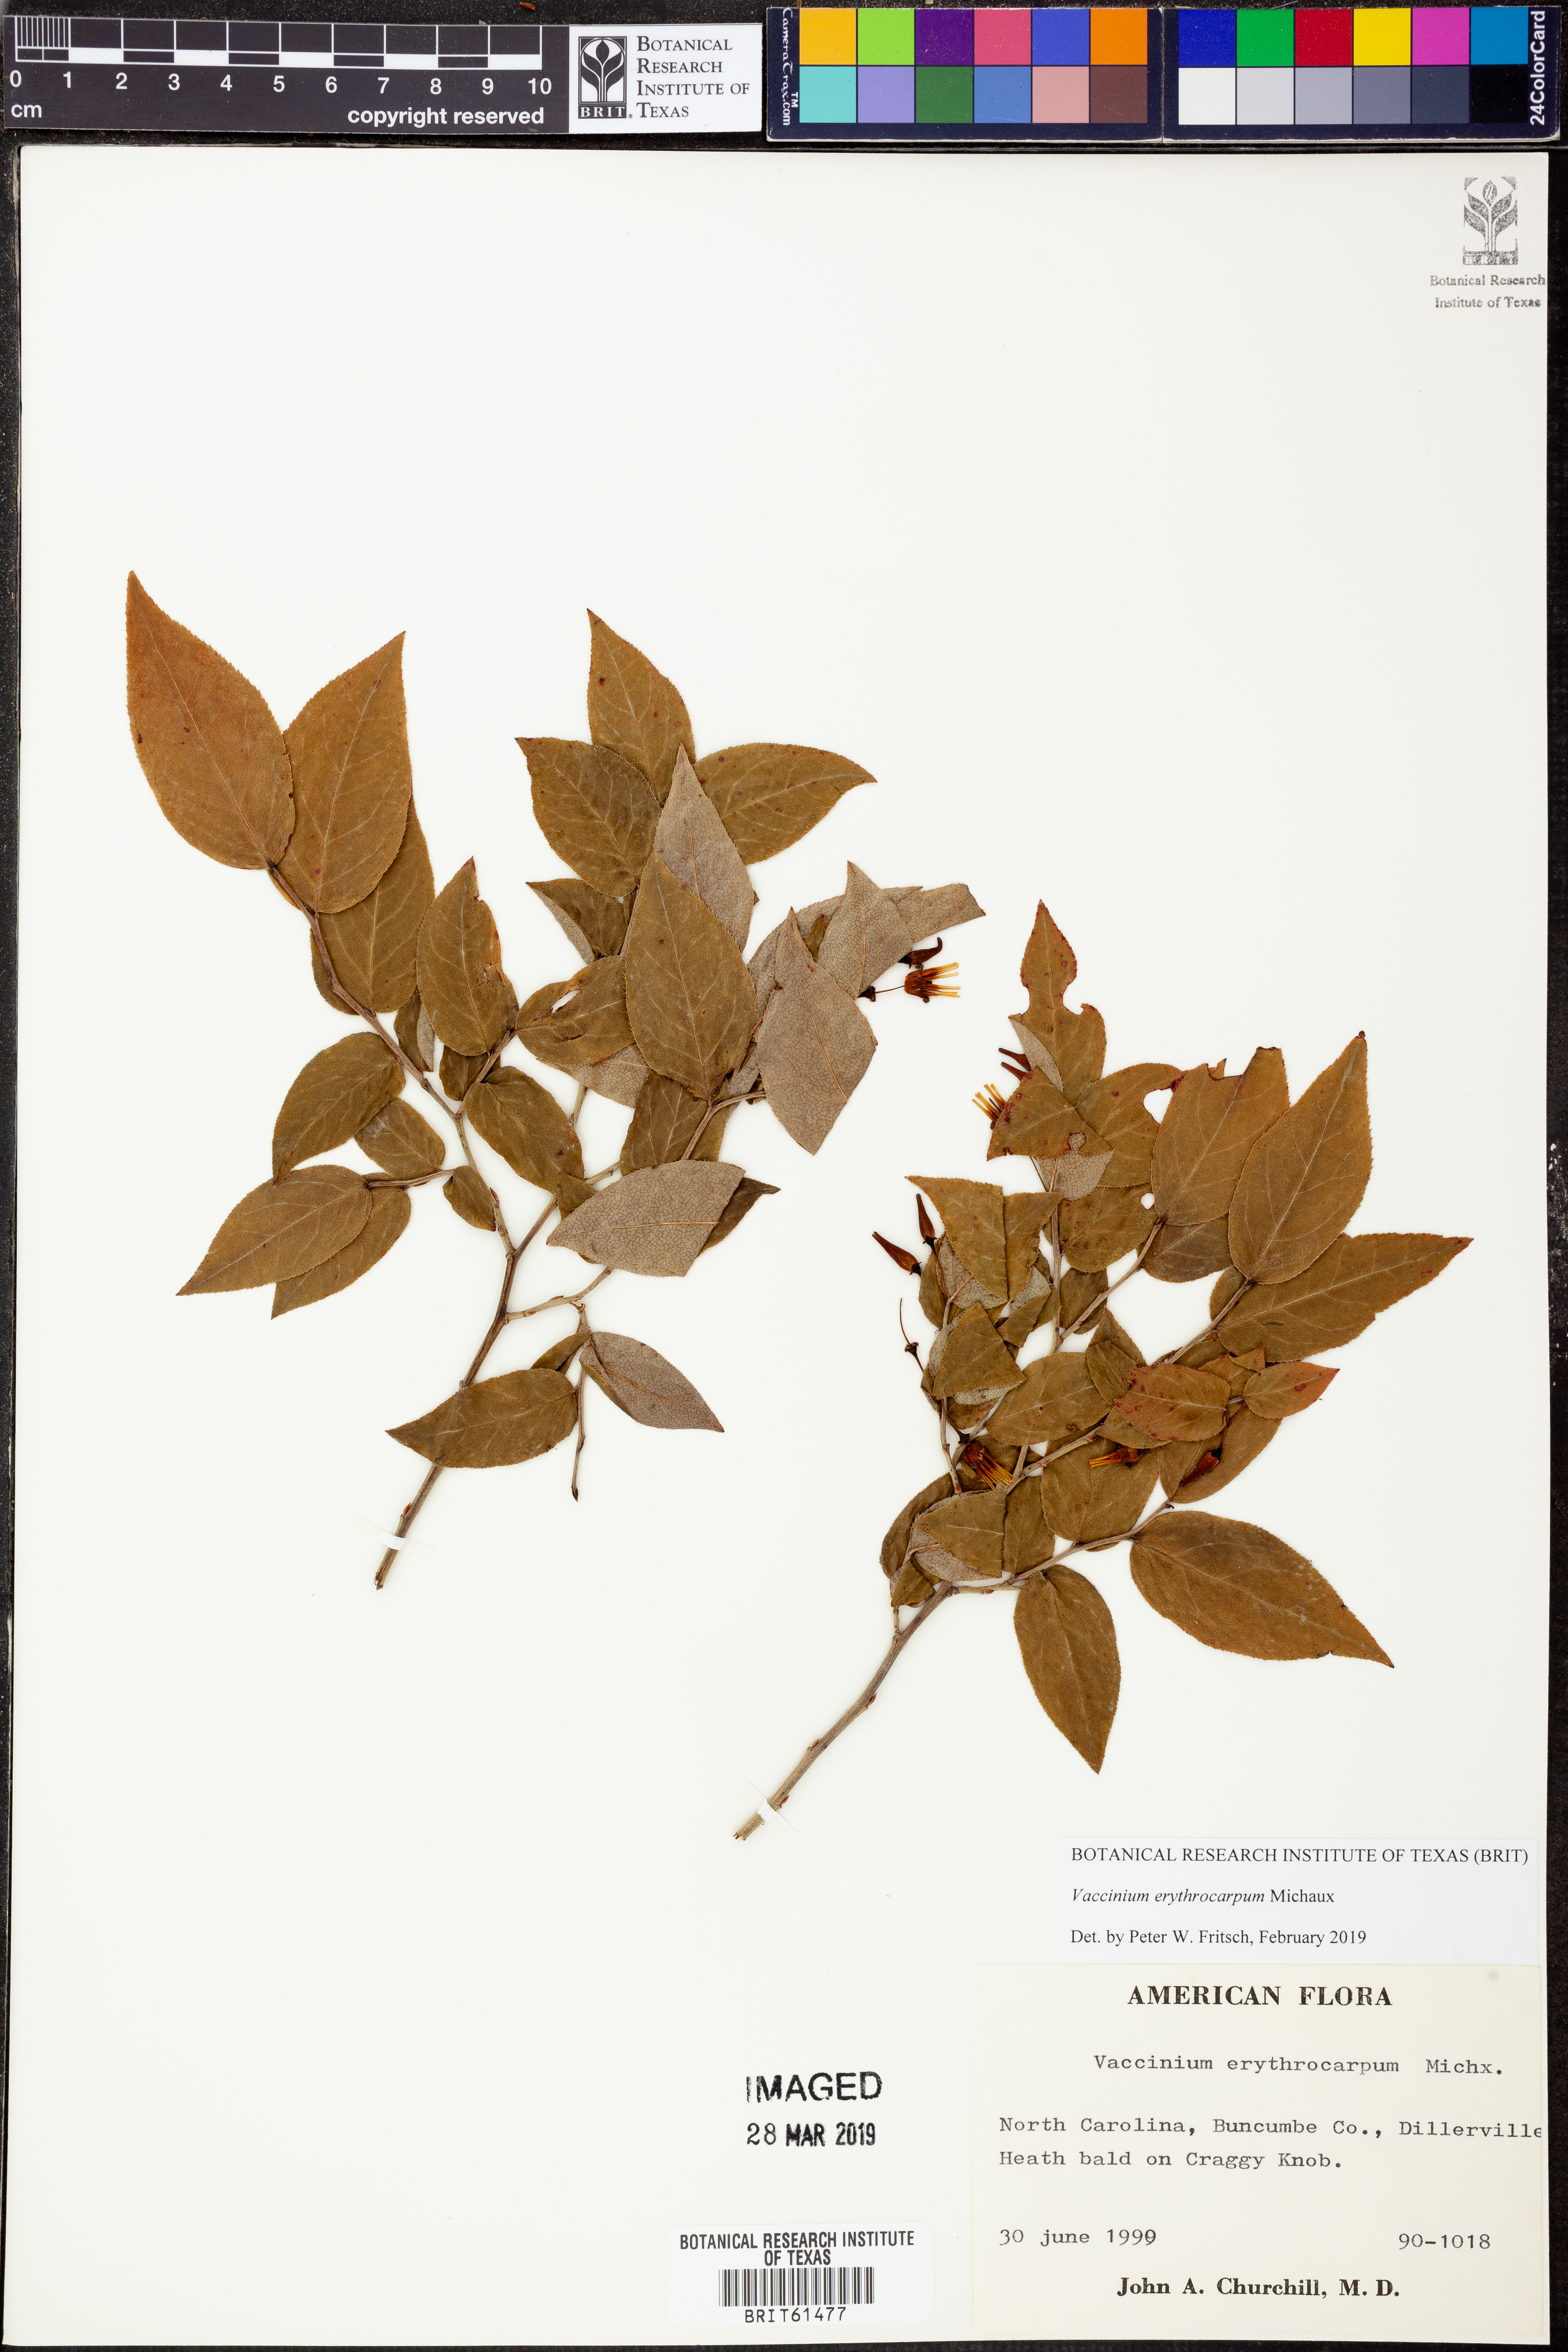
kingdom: Plantae
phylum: Tracheophyta
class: Magnoliopsida
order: Ericales
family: Ericaceae
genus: Vaccinium
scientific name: Vaccinium erythrocarpum
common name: Bearberry
